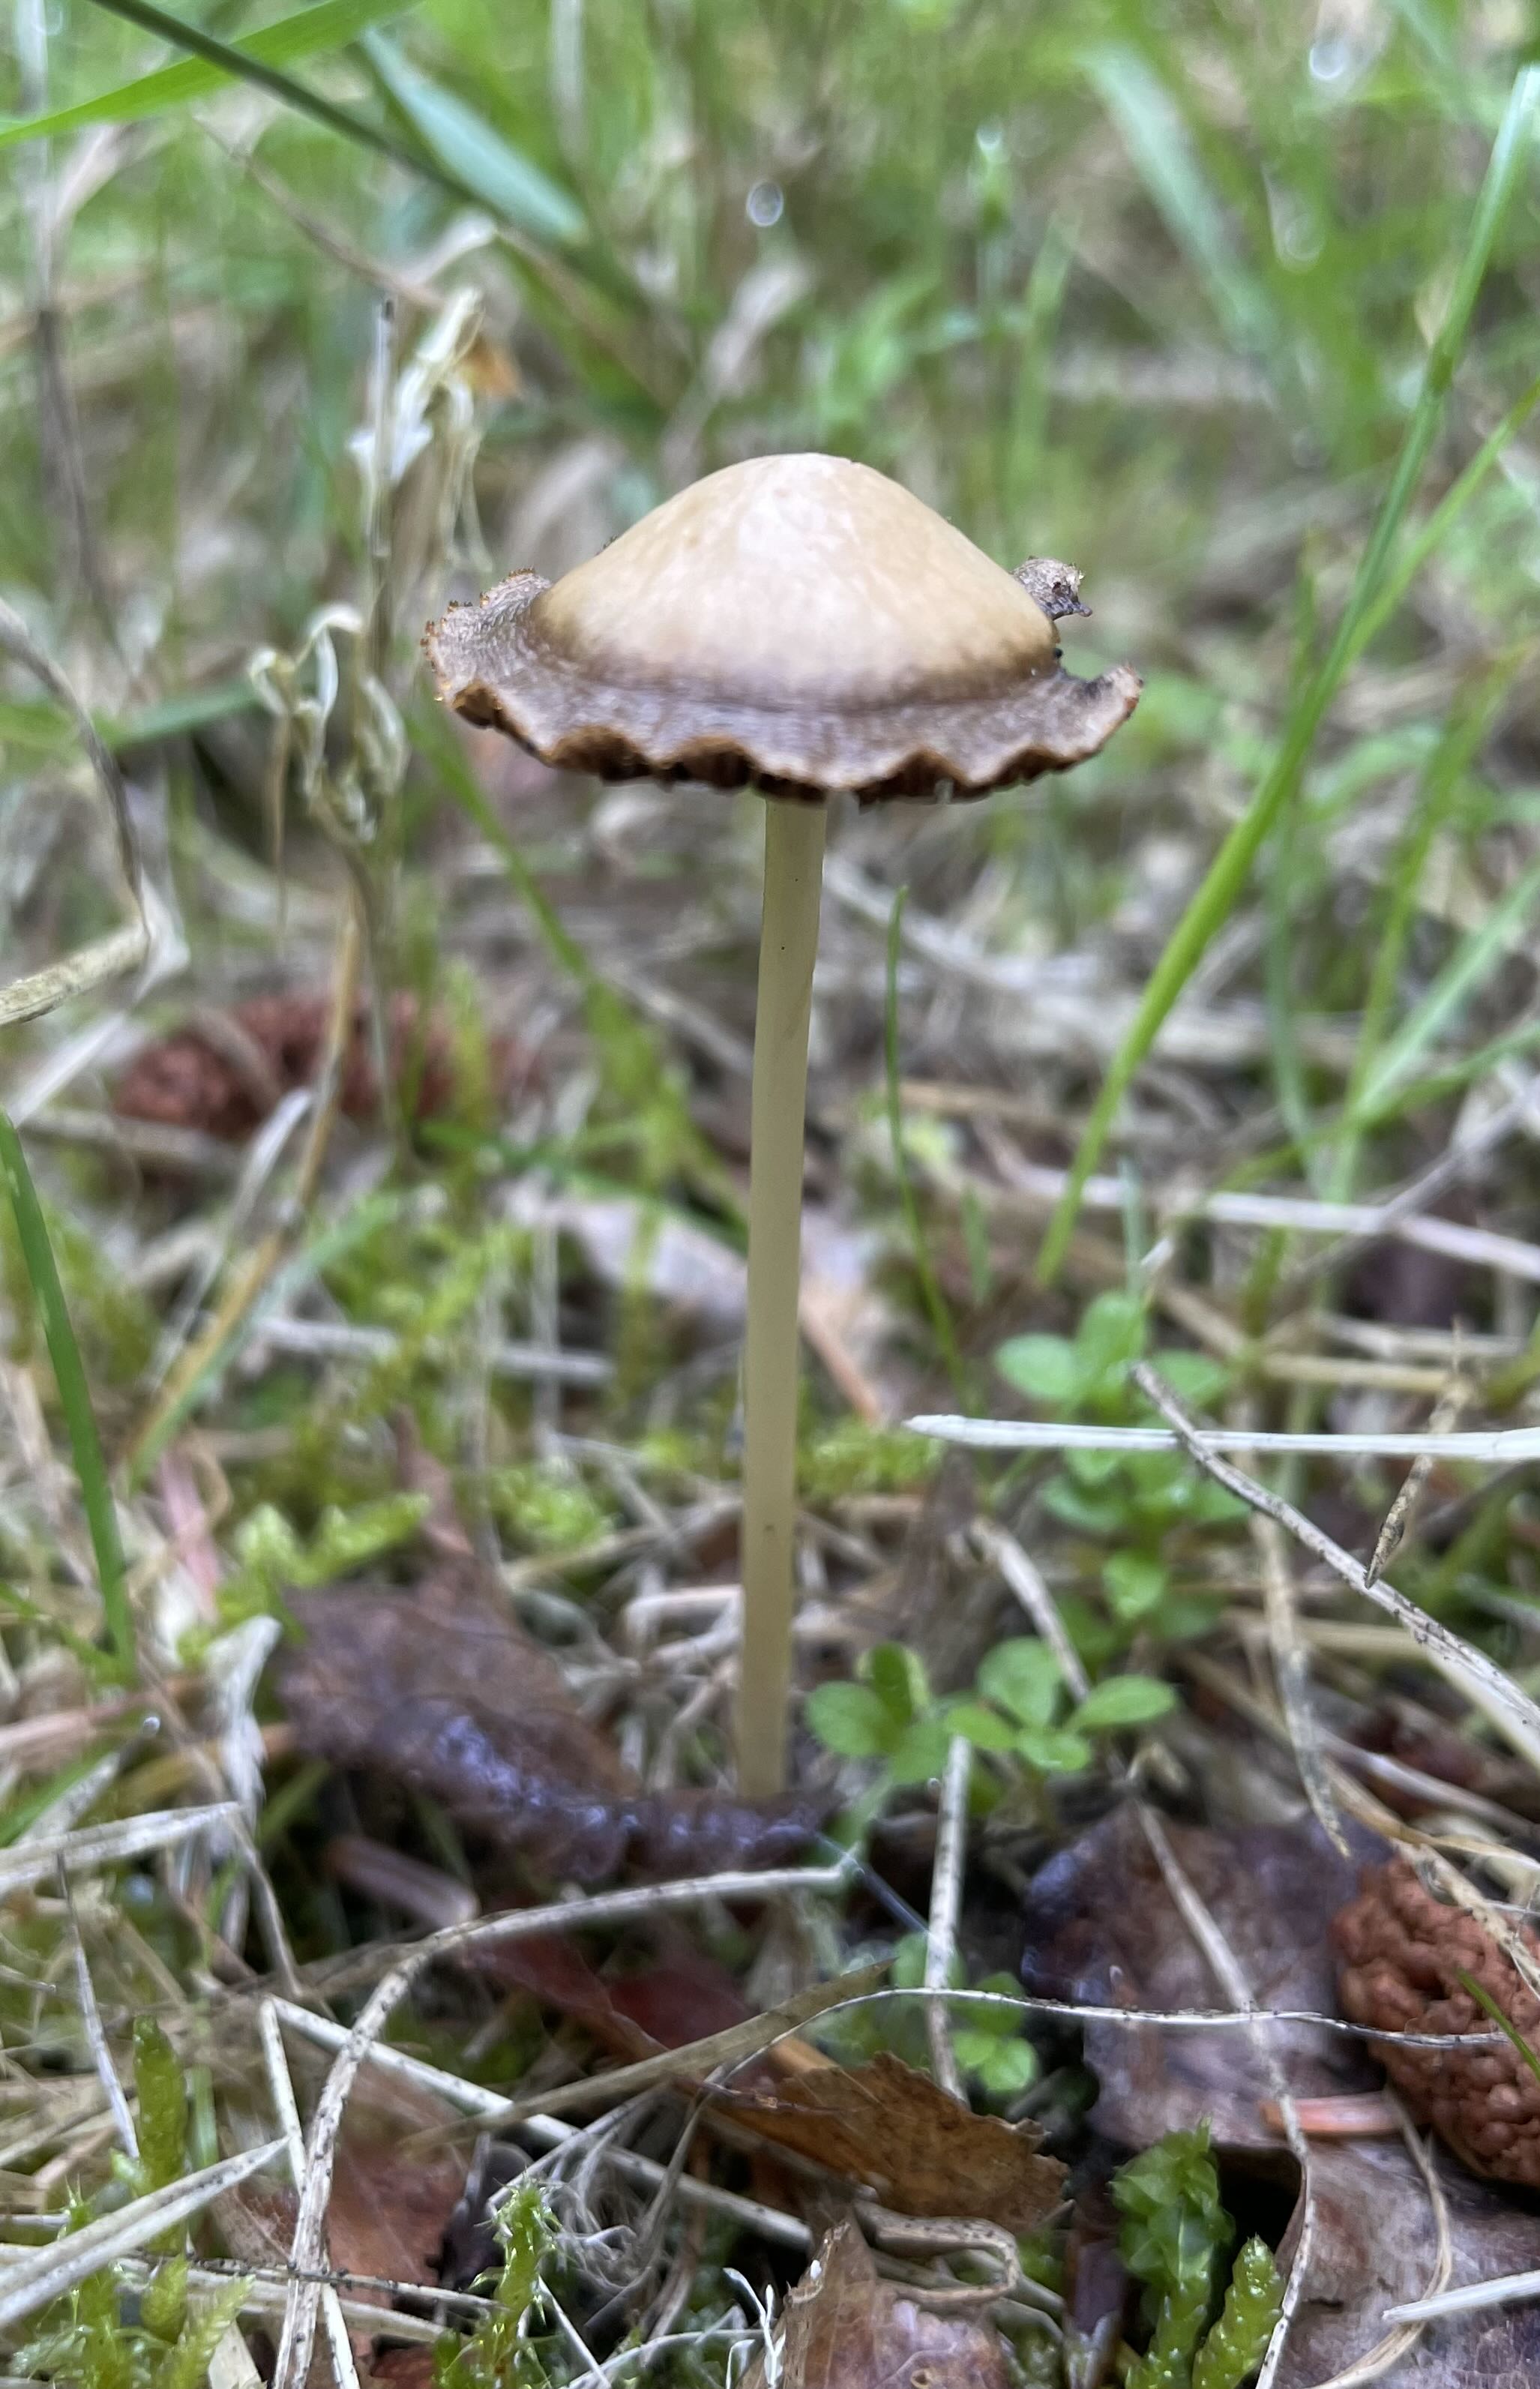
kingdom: Fungi
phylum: Basidiomycota
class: Agaricomycetes
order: Agaricales
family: Psathyrellaceae
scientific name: Psathyrellaceae
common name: mørkhatfamilien
